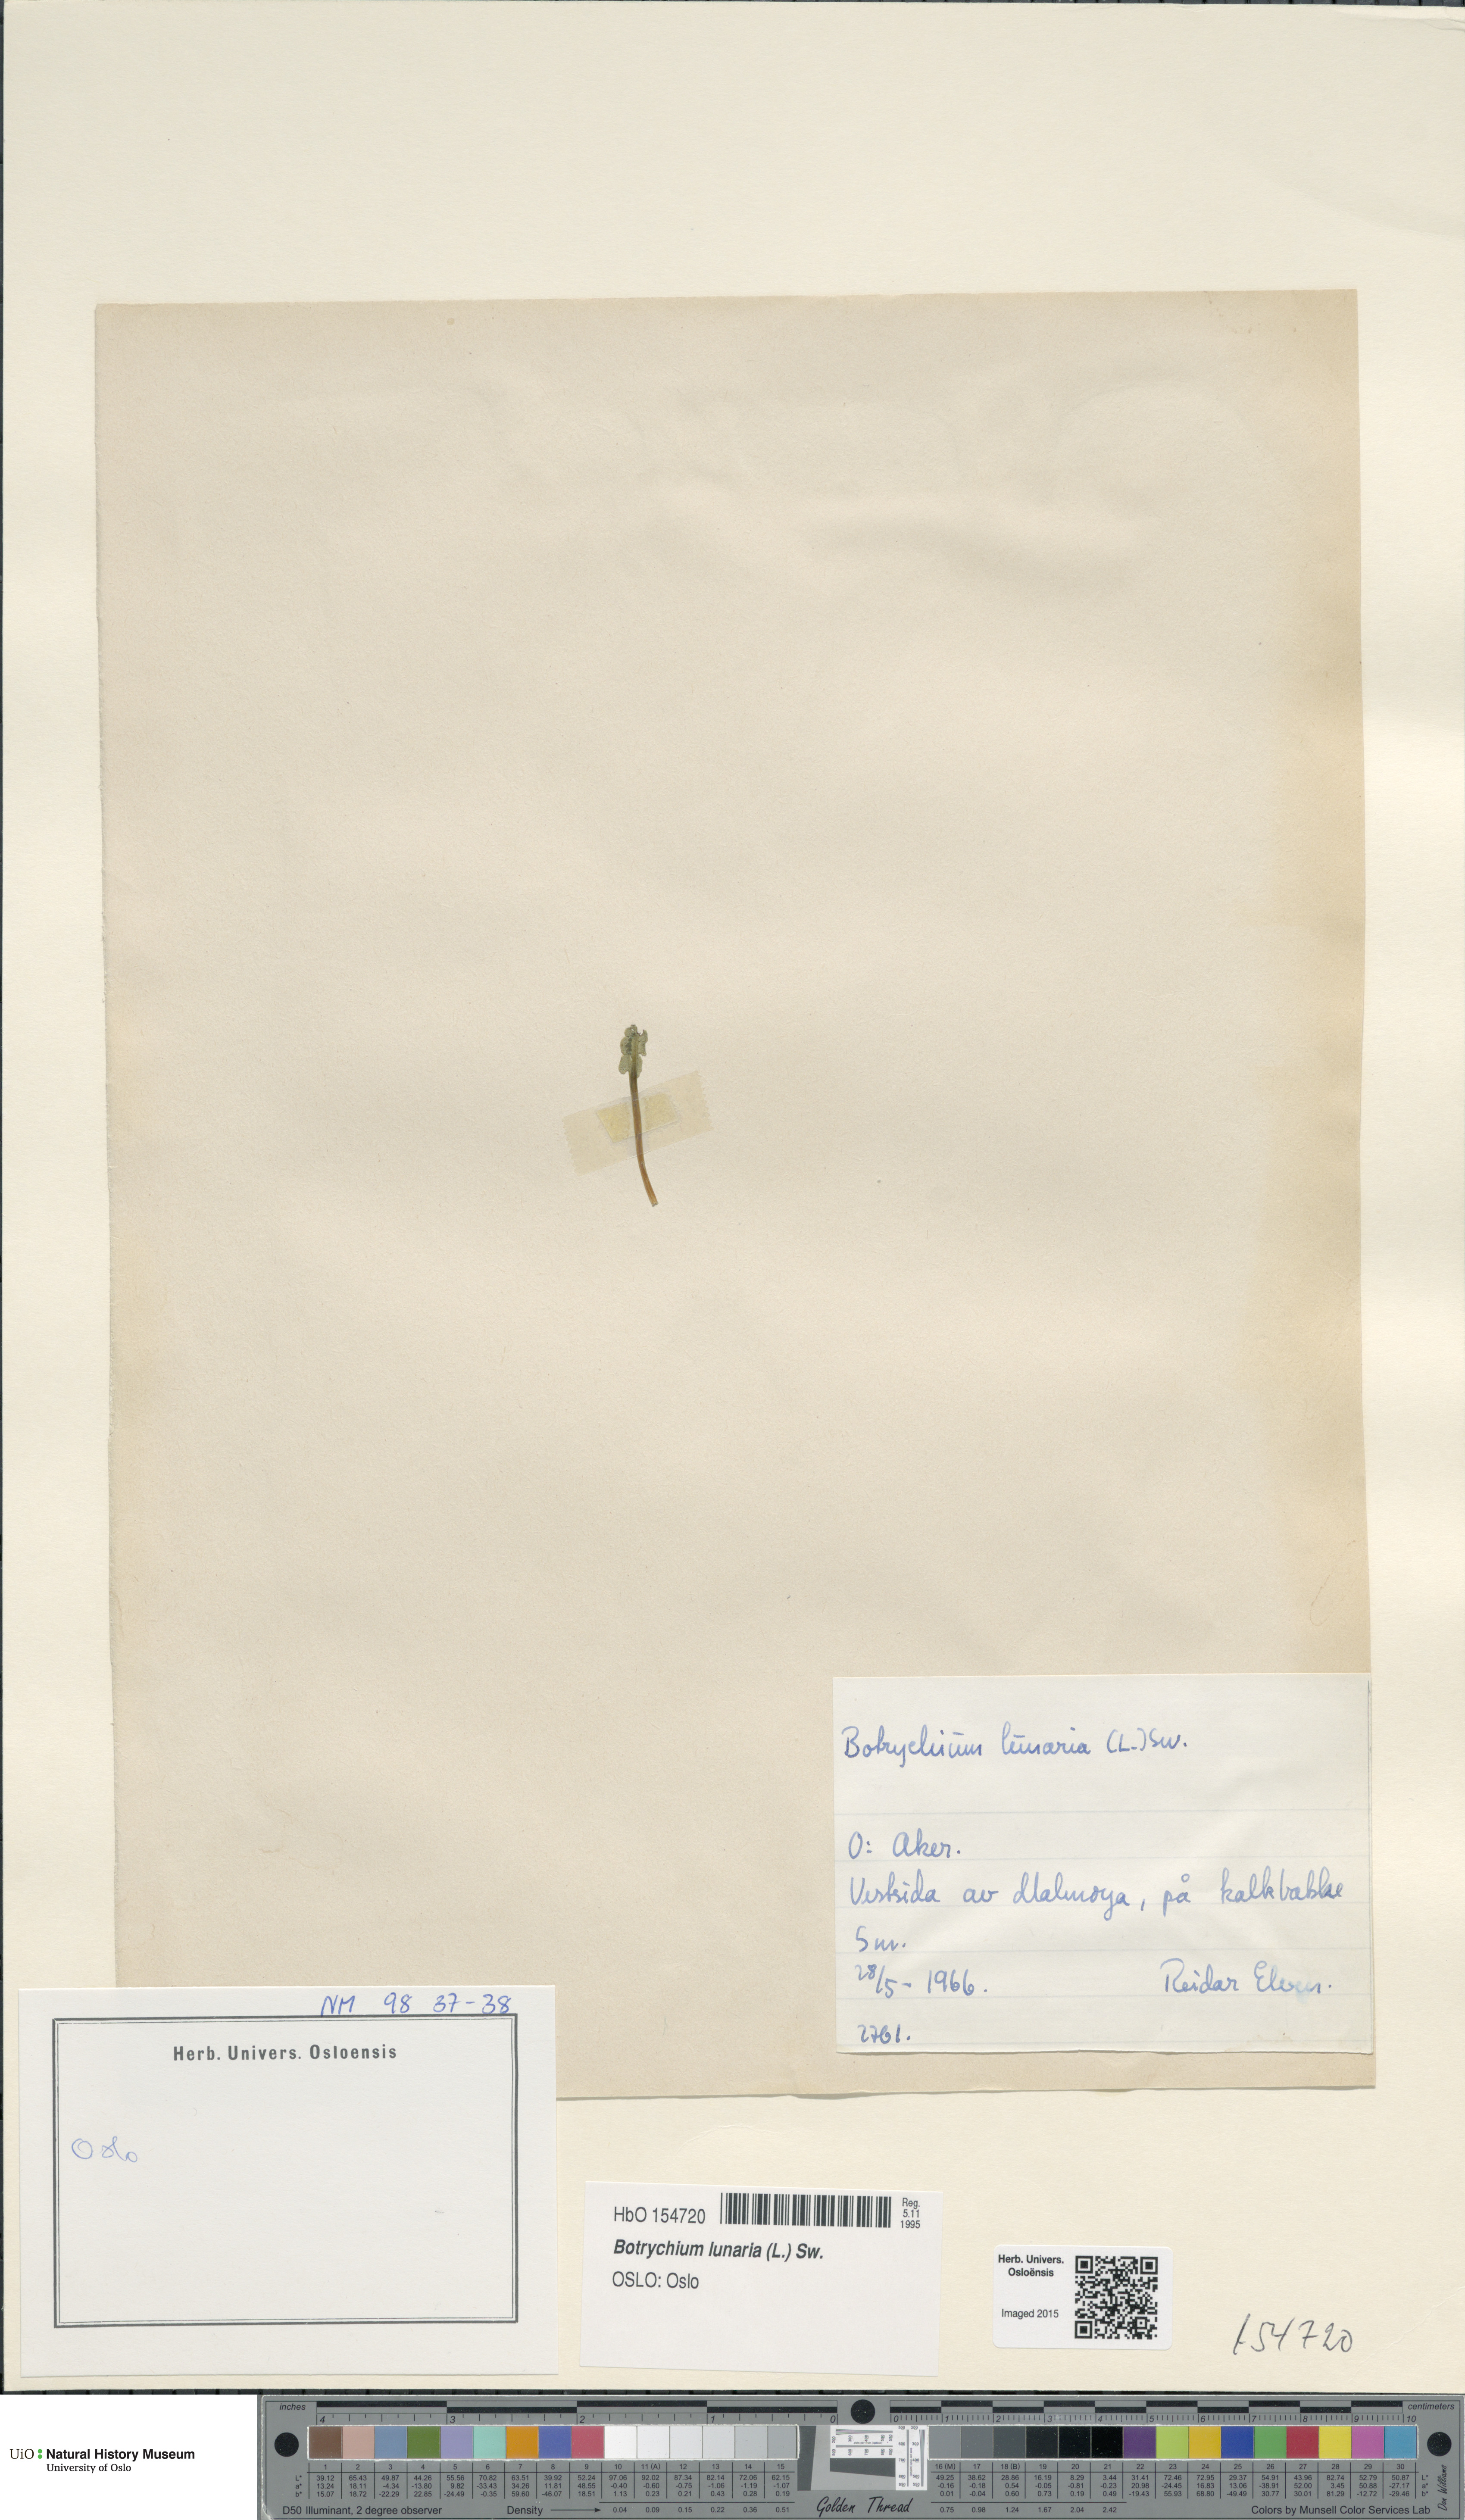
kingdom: Plantae
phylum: Tracheophyta
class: Polypodiopsida
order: Ophioglossales
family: Ophioglossaceae
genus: Botrychium
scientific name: Botrychium lunaria
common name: Moonwort
